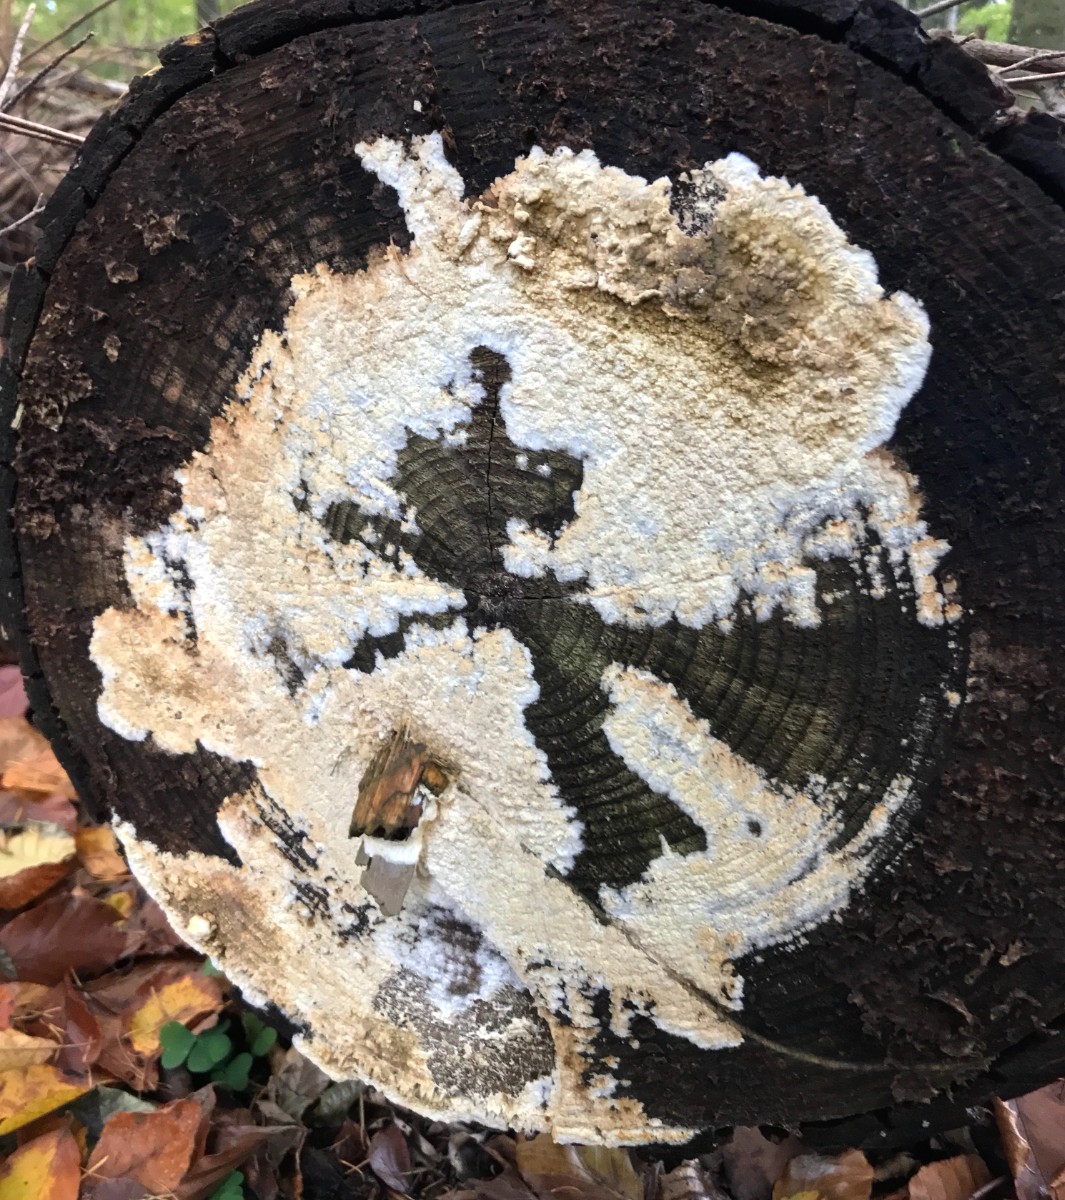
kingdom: Fungi
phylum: Basidiomycota
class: Agaricomycetes
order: Boletales
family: Coniophoraceae
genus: Coniophora
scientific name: Coniophora puteana
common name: gul tømmersvamp
